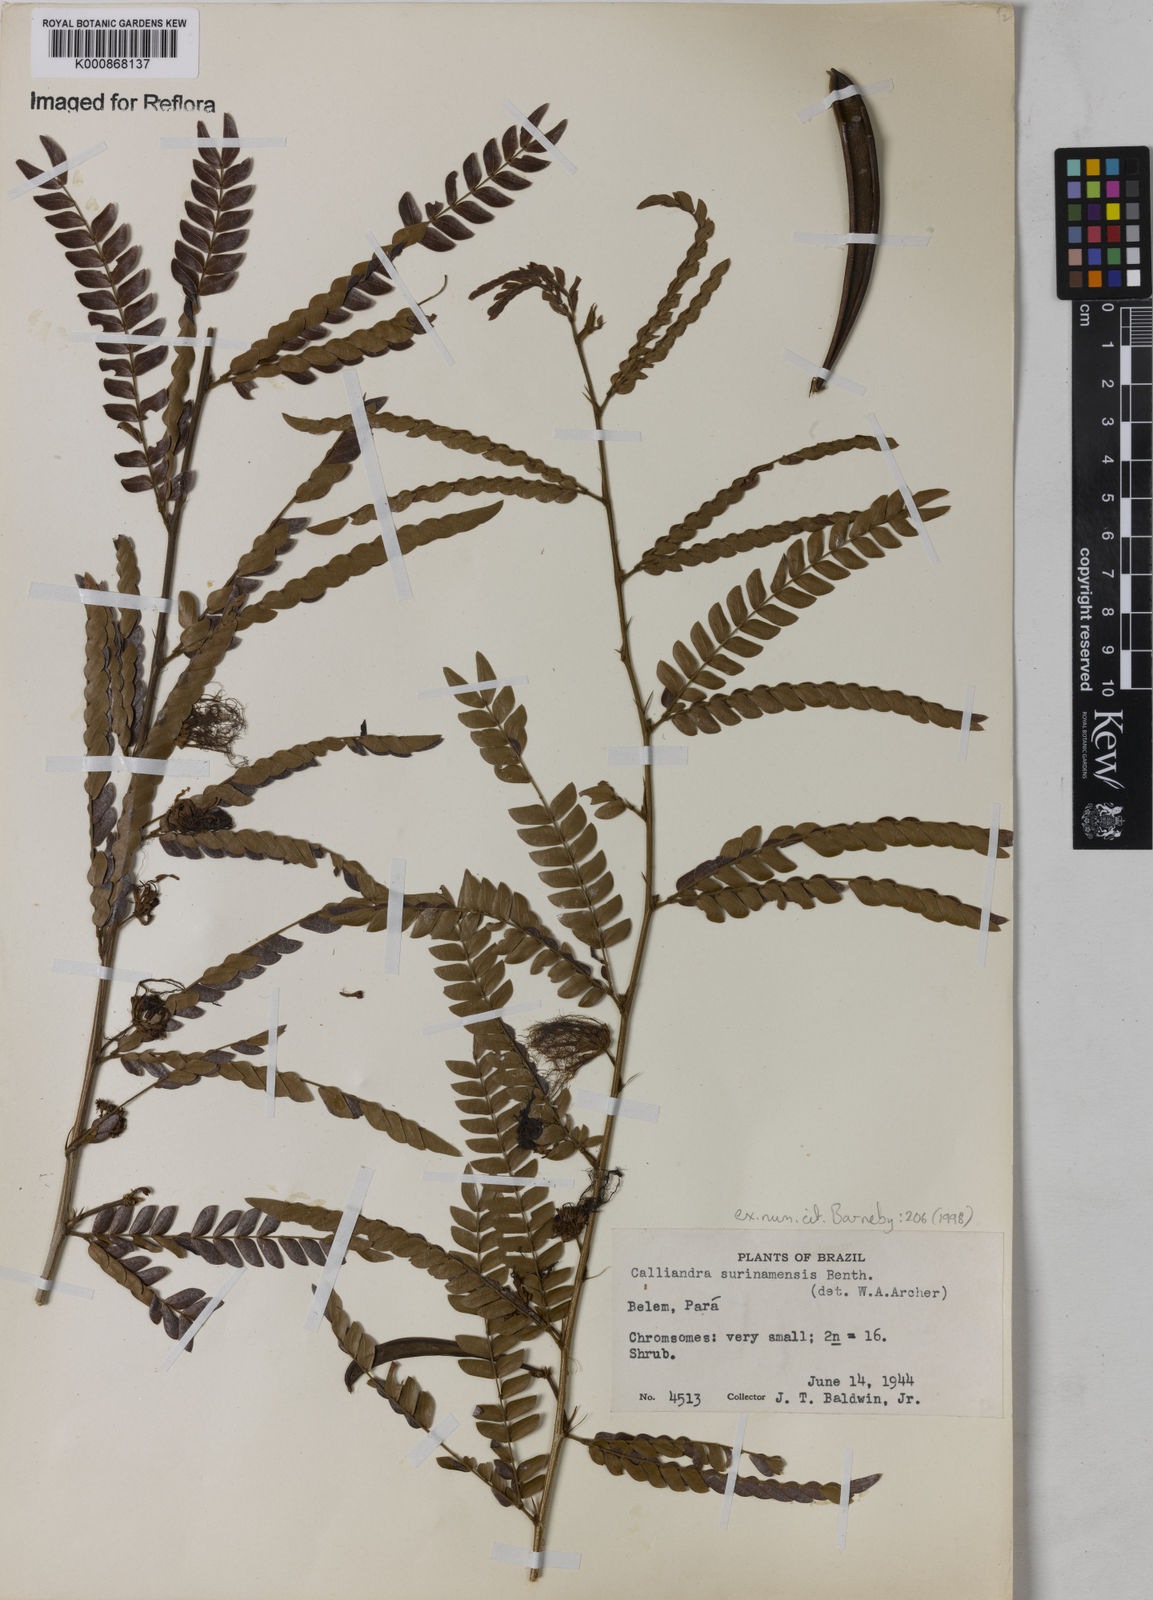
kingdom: Plantae
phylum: Tracheophyta
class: Magnoliopsida
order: Fabales
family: Fabaceae
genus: Calliandra
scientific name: Calliandra surinamensis
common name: Pink powder puff
